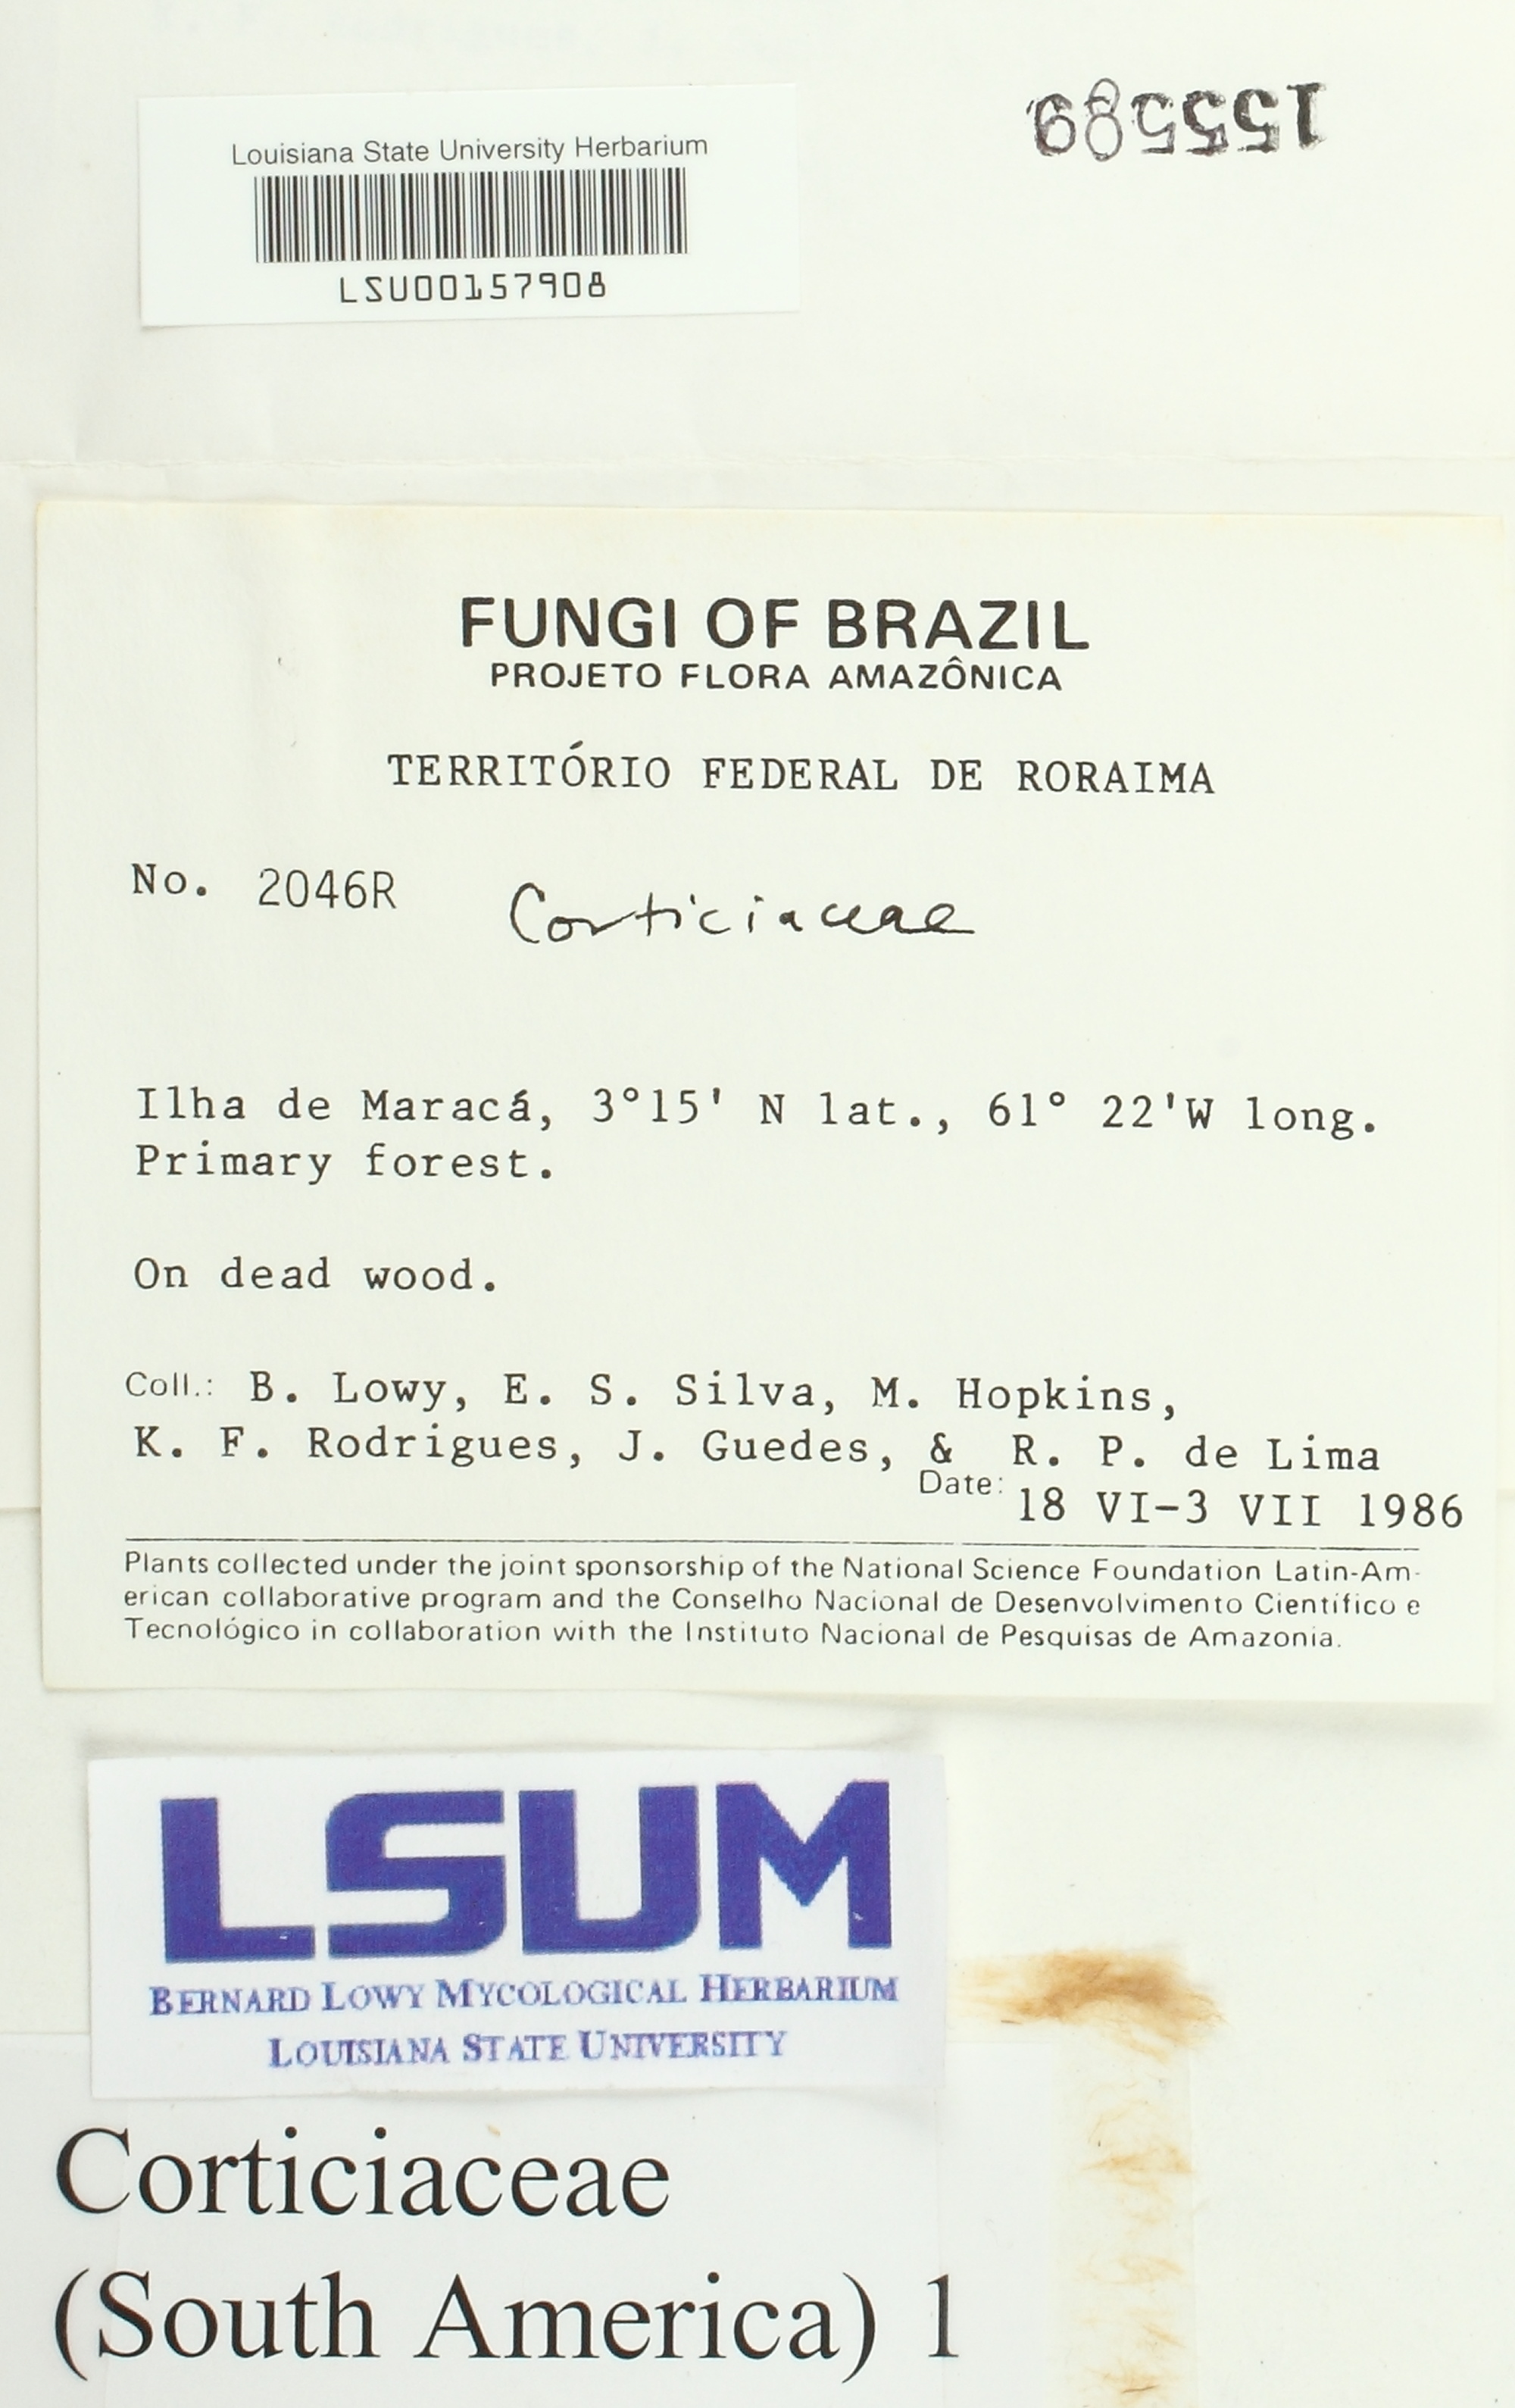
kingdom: Fungi
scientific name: Fungi
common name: Fungi
